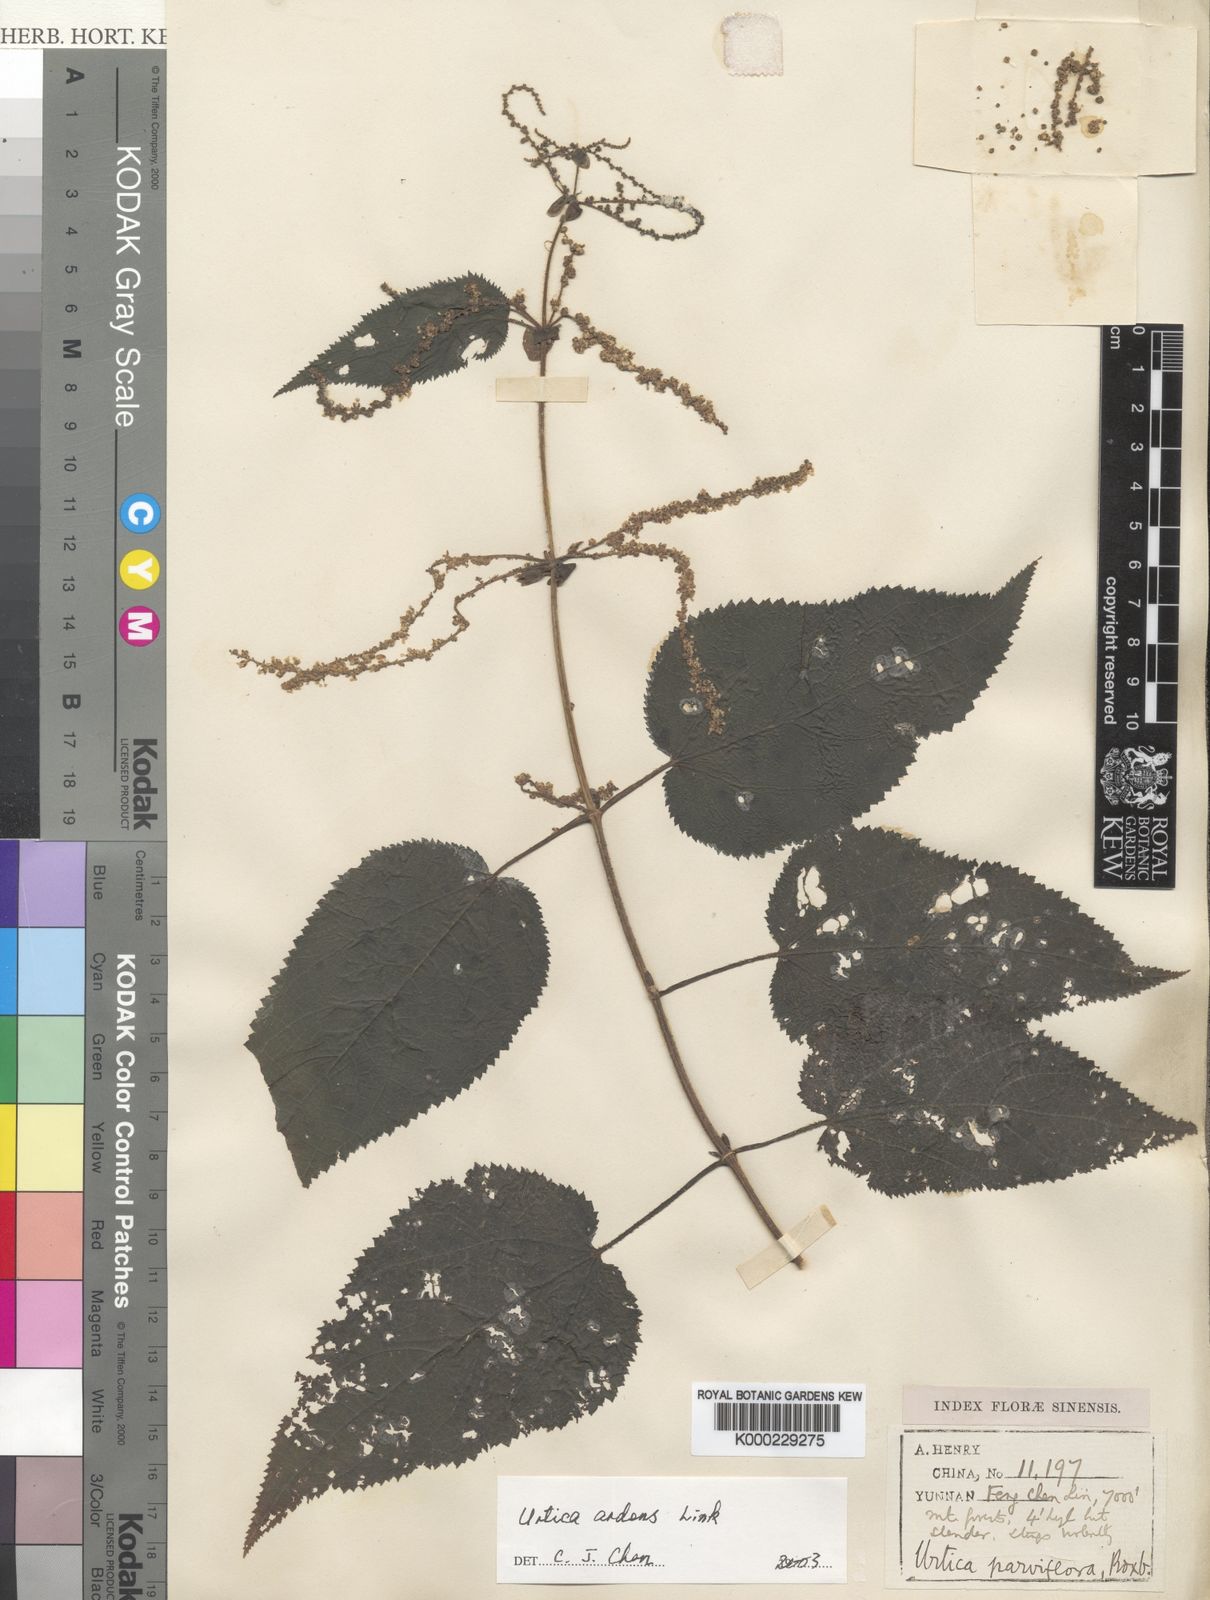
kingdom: Plantae
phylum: Tracheophyta
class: Magnoliopsida
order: Rosales
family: Urticaceae
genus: Urtica
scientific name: Urtica ardens
